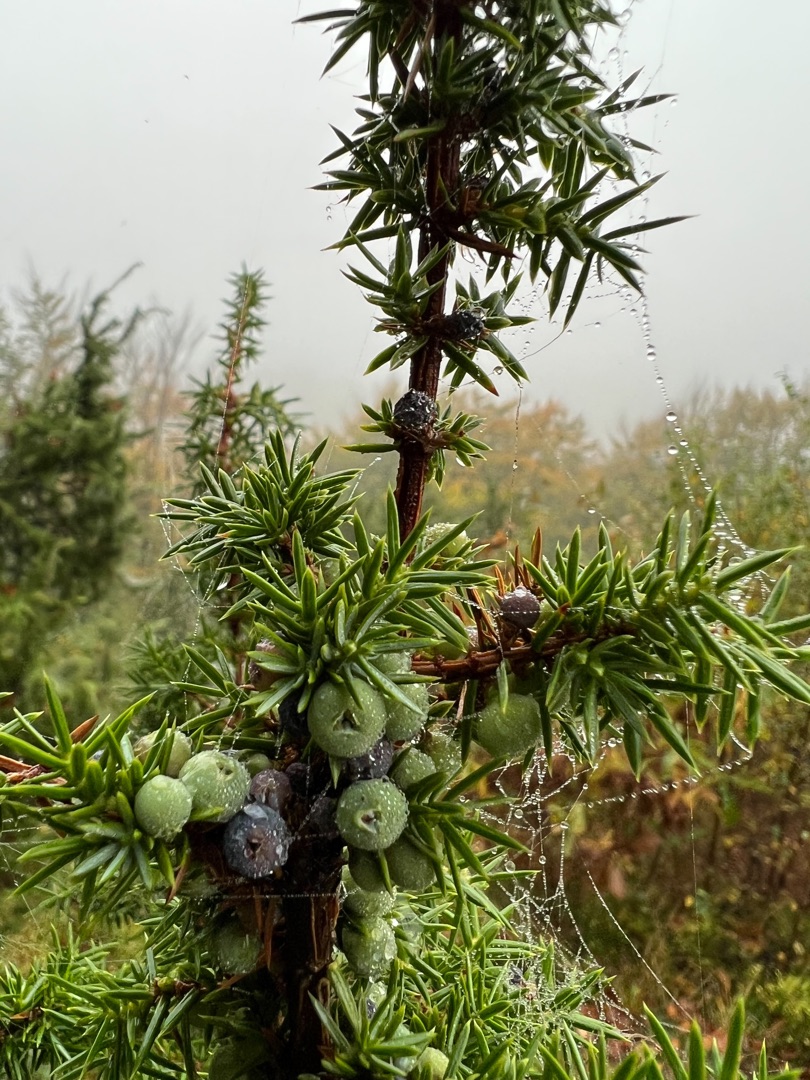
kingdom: Plantae
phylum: Tracheophyta
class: Pinopsida
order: Pinales
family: Cupressaceae
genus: Juniperus
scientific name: Juniperus communis
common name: Almindelig ene
